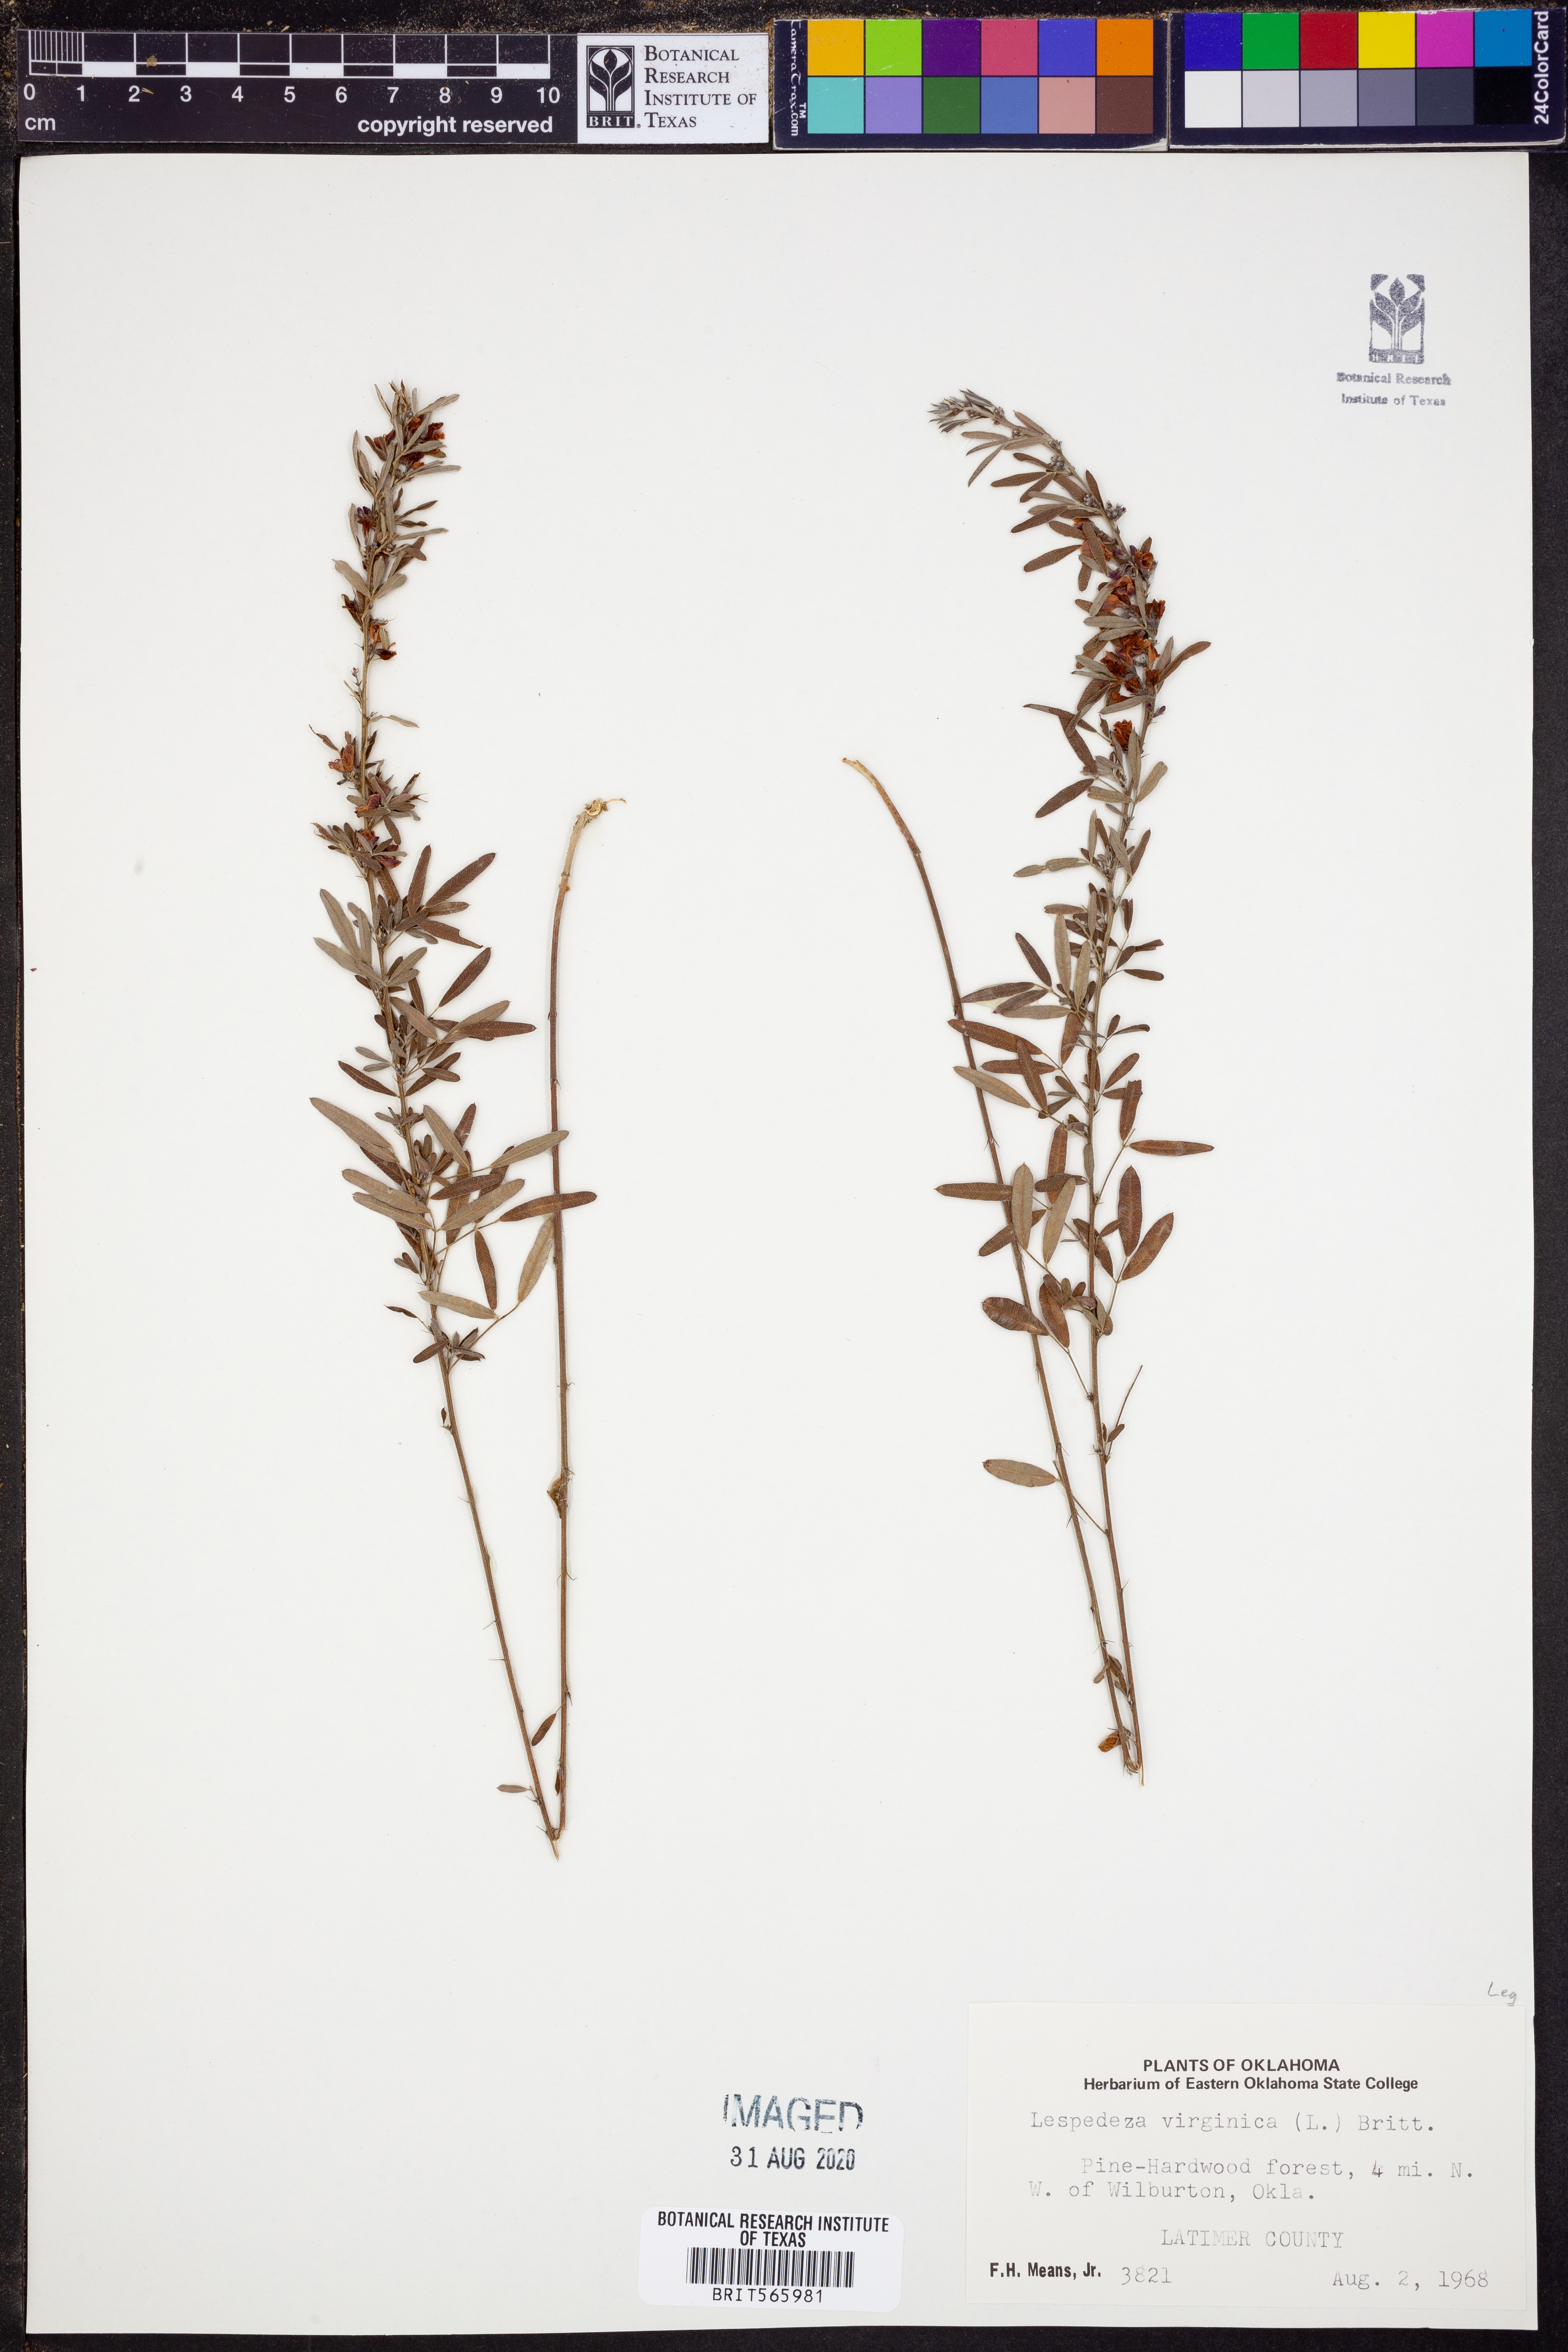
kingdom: Plantae
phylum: Tracheophyta
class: Magnoliopsida
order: Fabales
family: Fabaceae
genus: Lespedeza
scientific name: Lespedeza virginica
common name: Slender bush-clover
